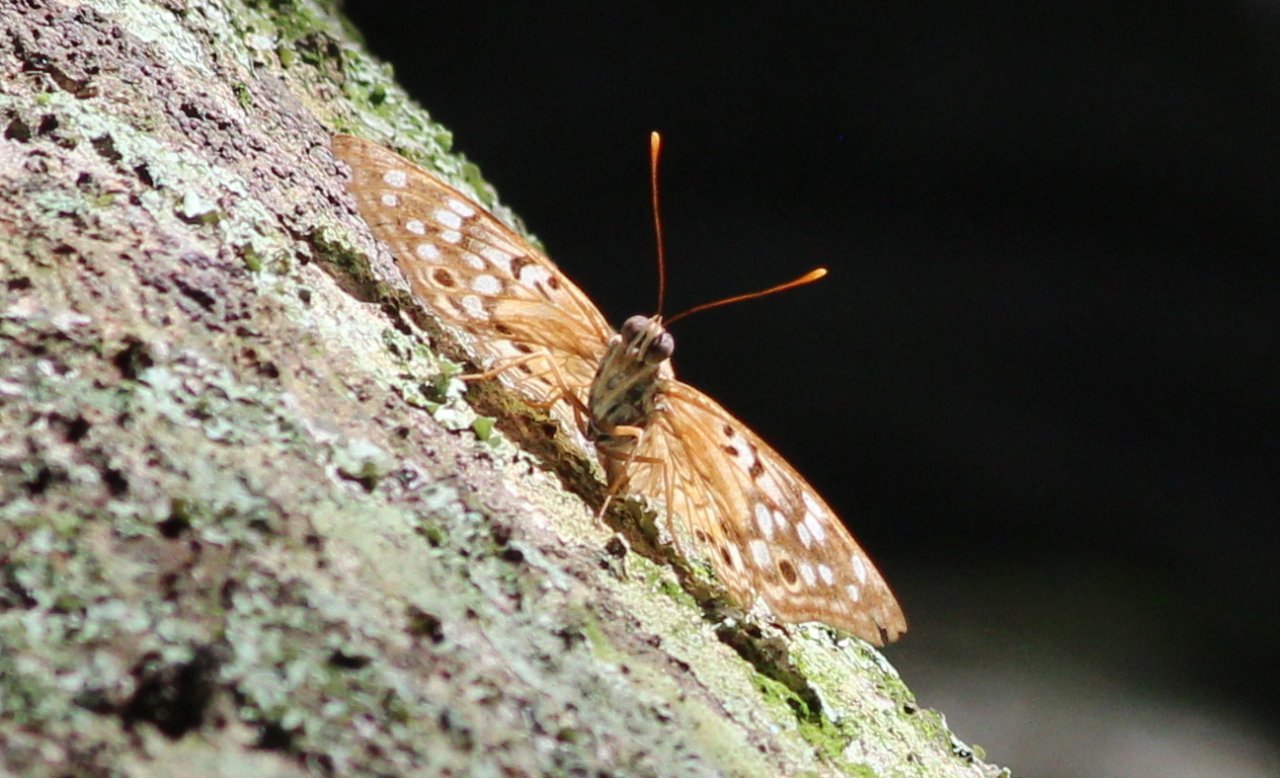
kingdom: Animalia
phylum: Arthropoda
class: Insecta
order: Lepidoptera
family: Nymphalidae
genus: Asterocampa
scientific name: Asterocampa celtis
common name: Hackberry Emperor
